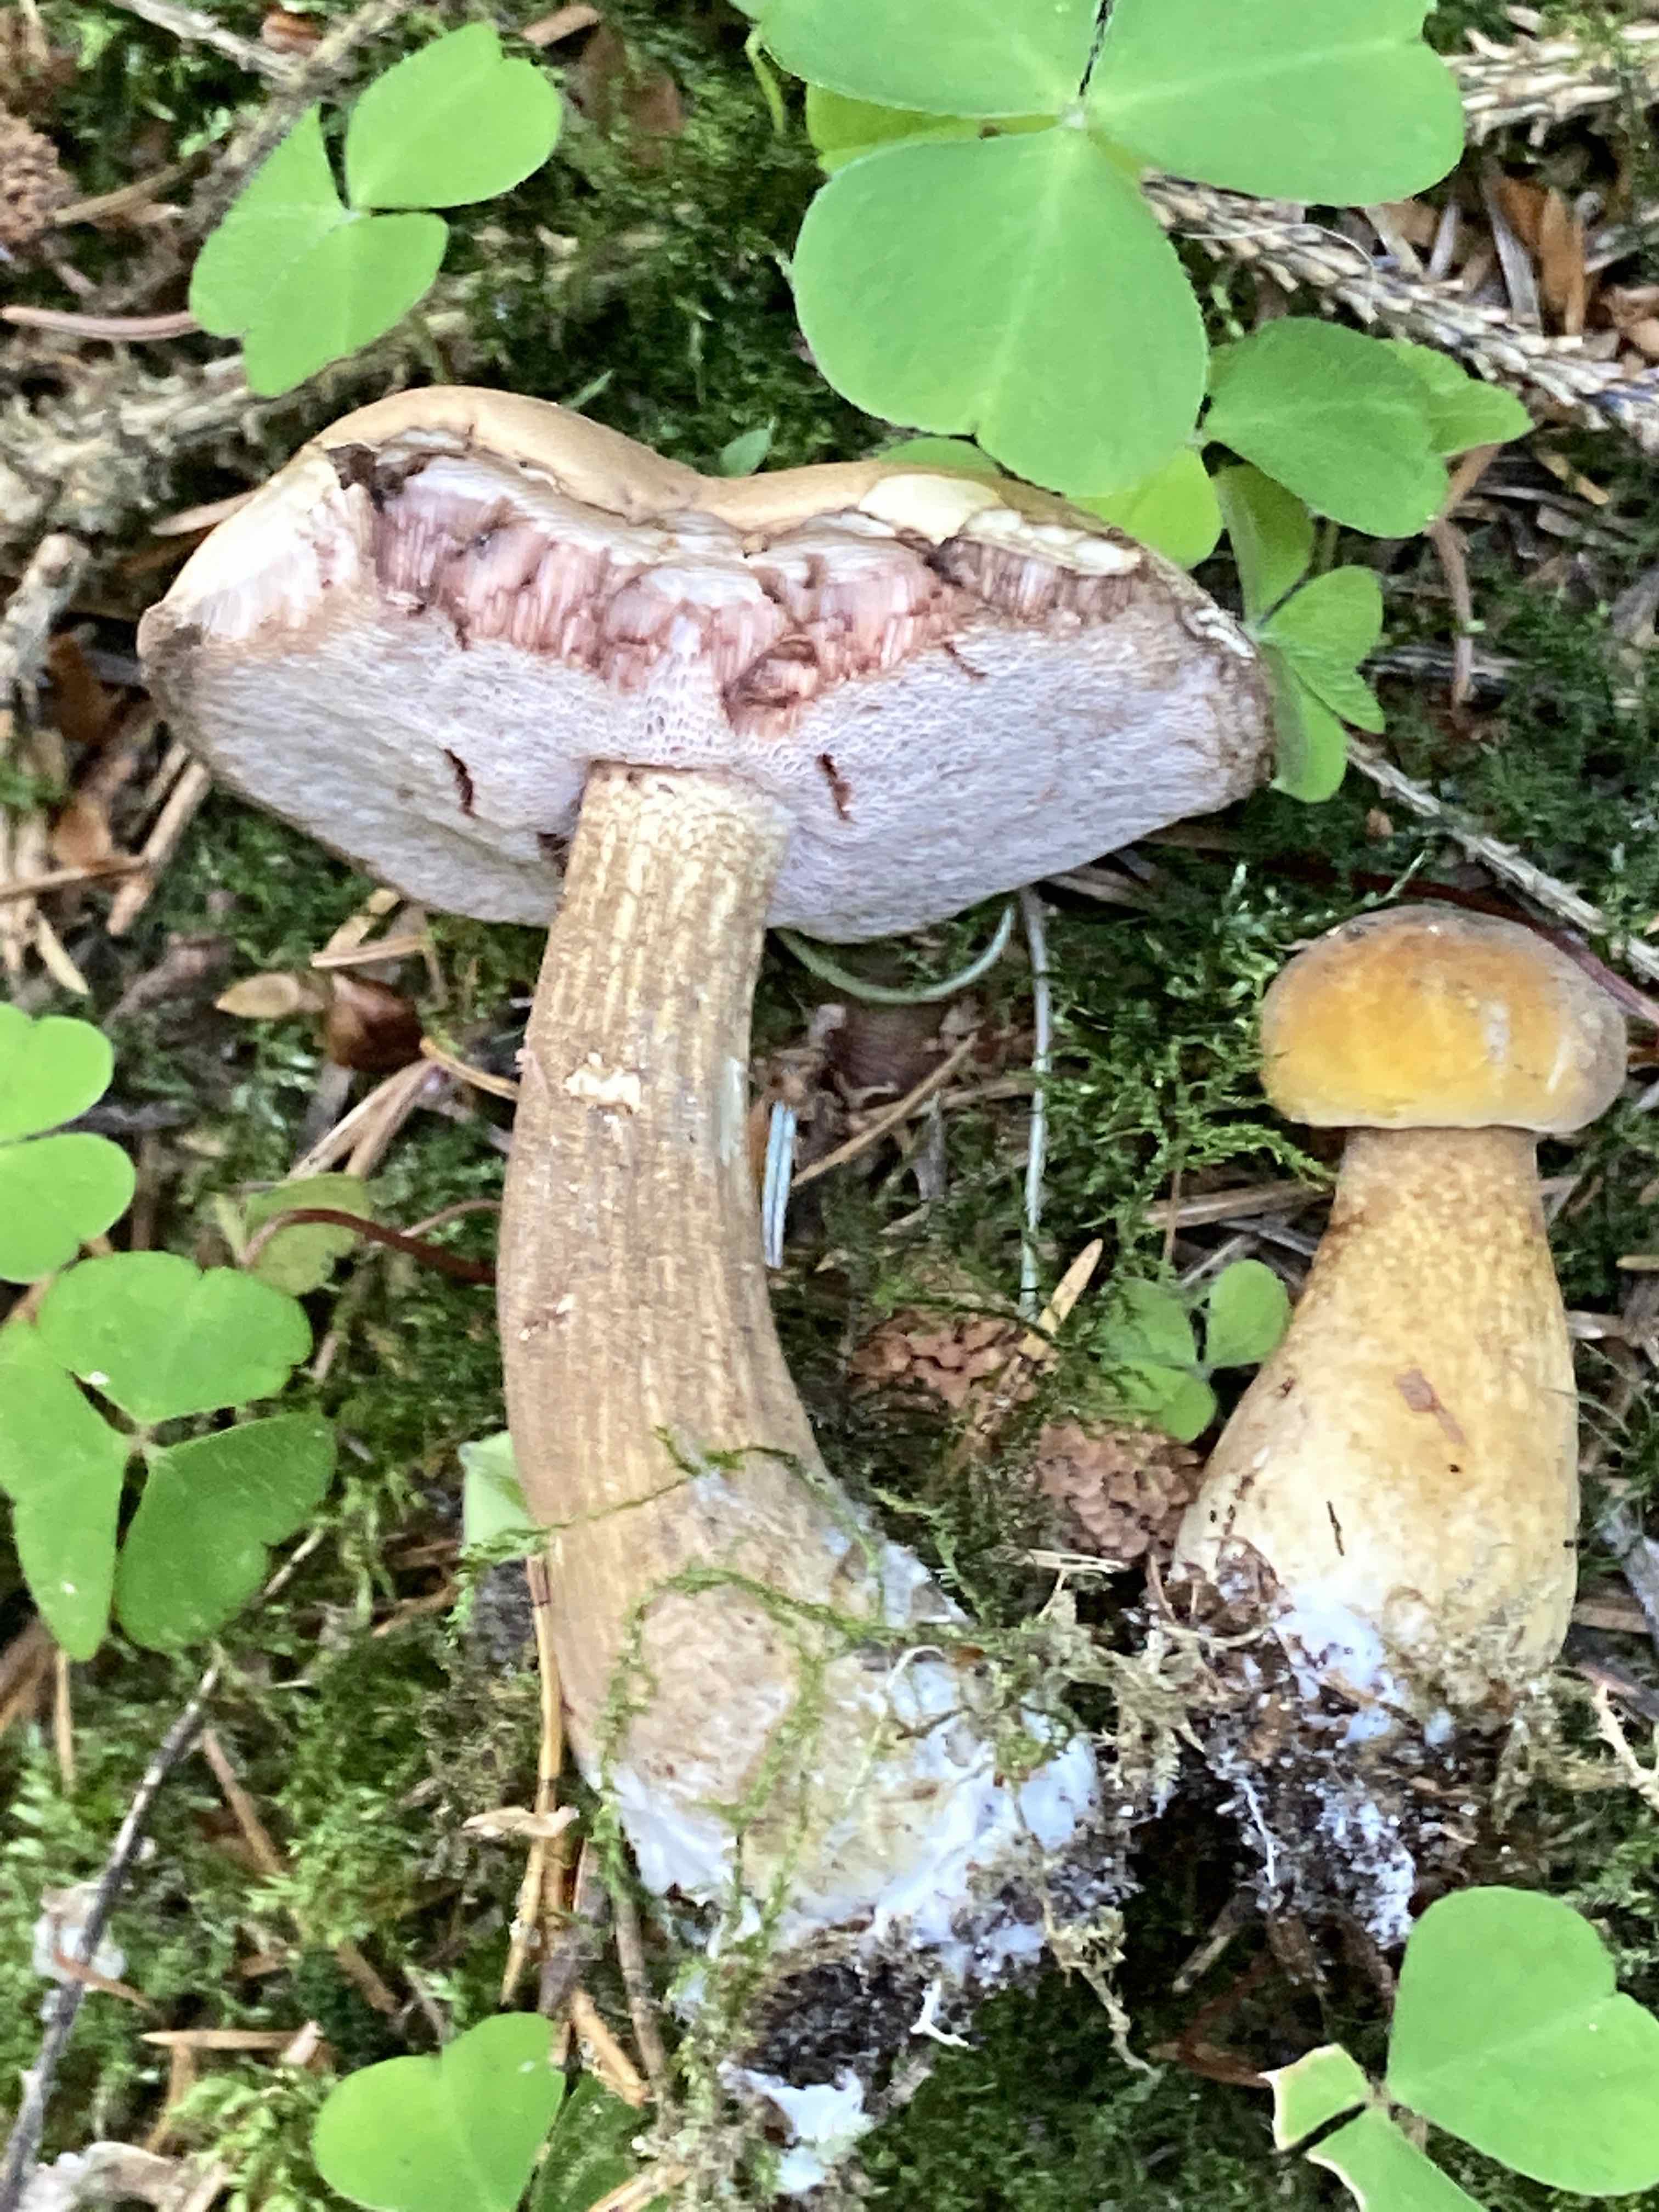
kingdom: Fungi
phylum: Basidiomycota
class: Agaricomycetes
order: Boletales
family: Boletaceae
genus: Tylopilus
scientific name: Tylopilus felleus
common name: galderørhat
